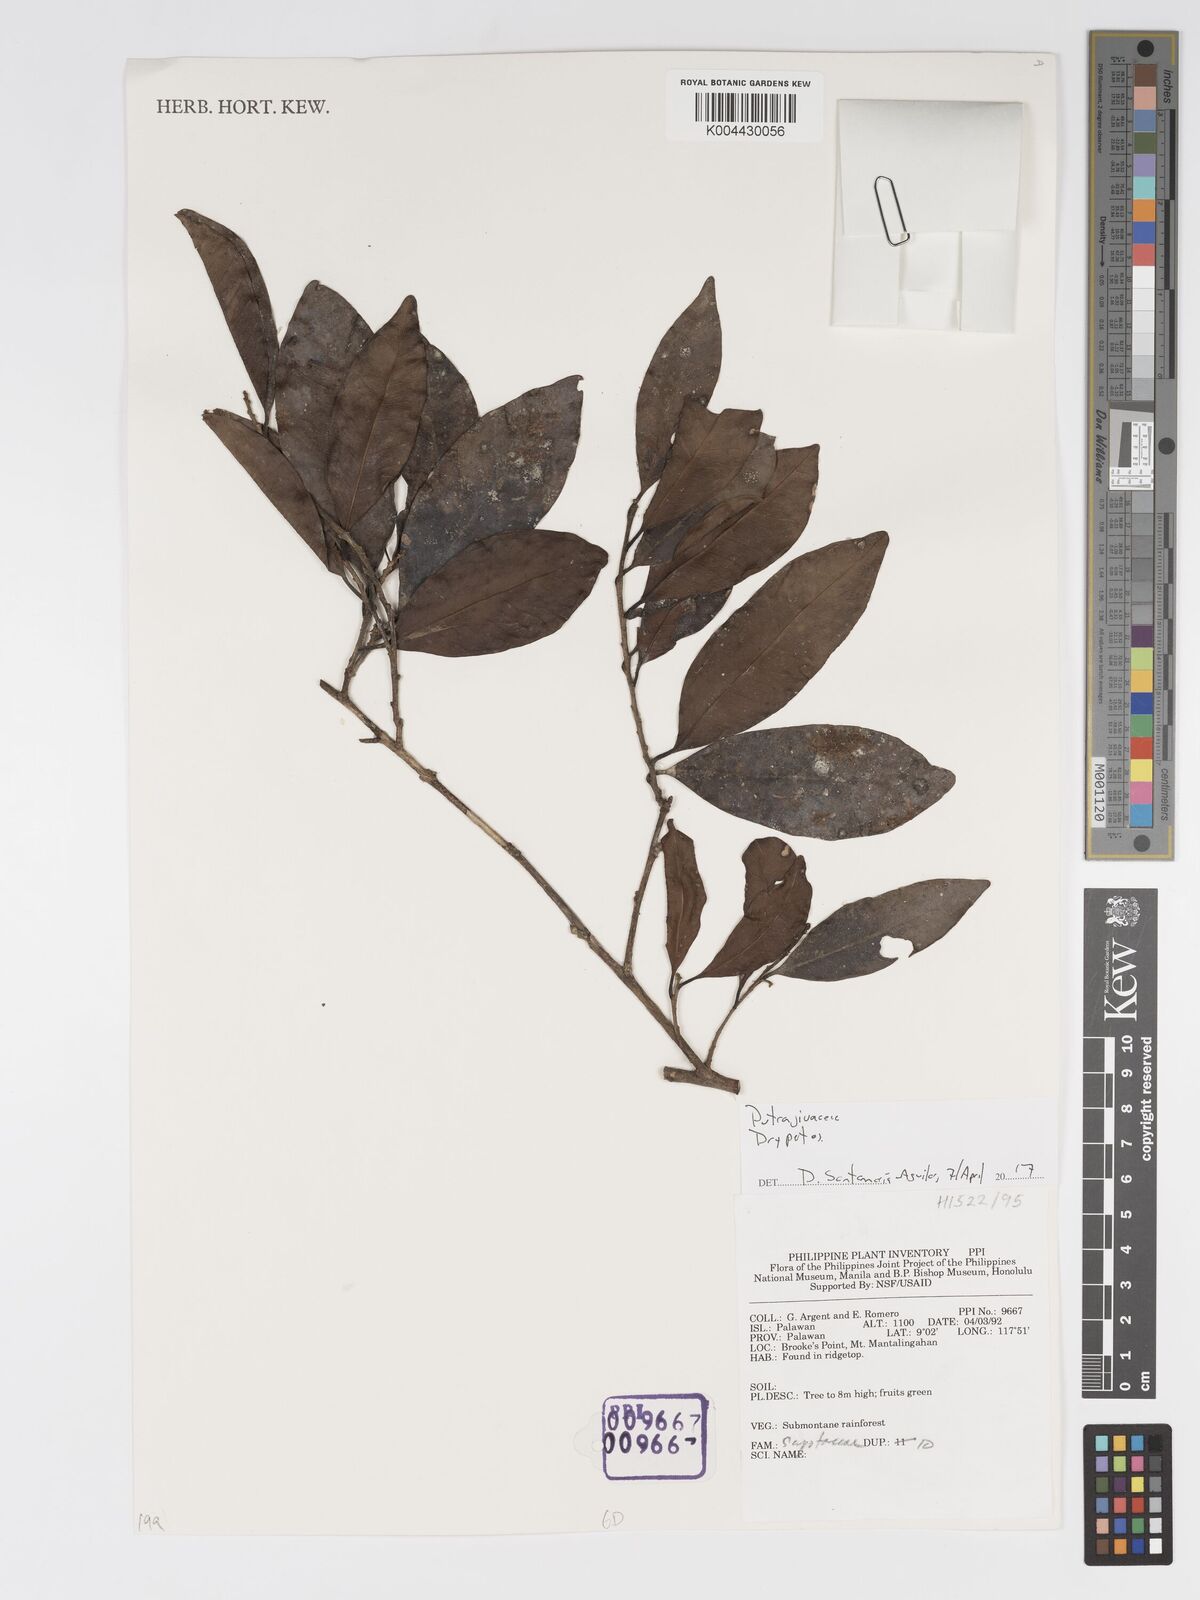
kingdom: Plantae
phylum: Tracheophyta
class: Magnoliopsida
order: Malpighiales
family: Putranjivaceae
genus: Drypetes
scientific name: Drypetes
